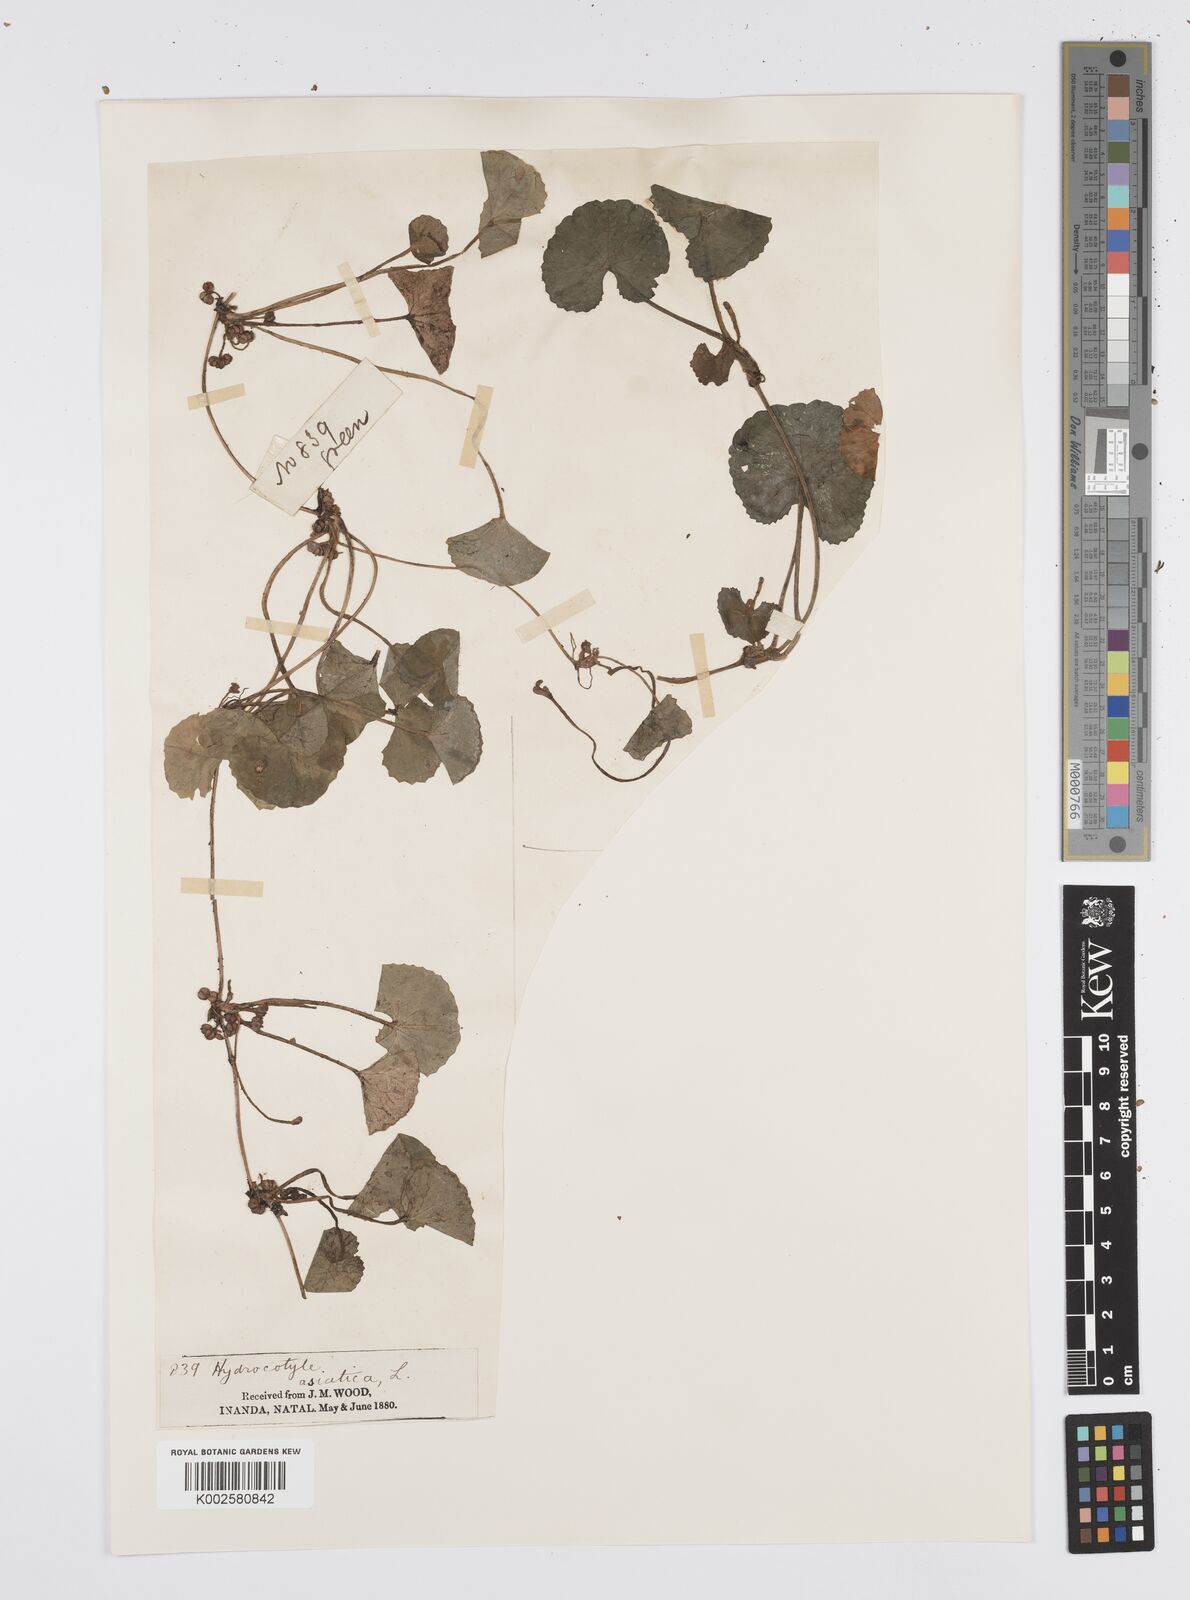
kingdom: Plantae
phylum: Tracheophyta
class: Magnoliopsida
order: Apiales
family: Apiaceae
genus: Centella
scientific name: Centella coriacea
